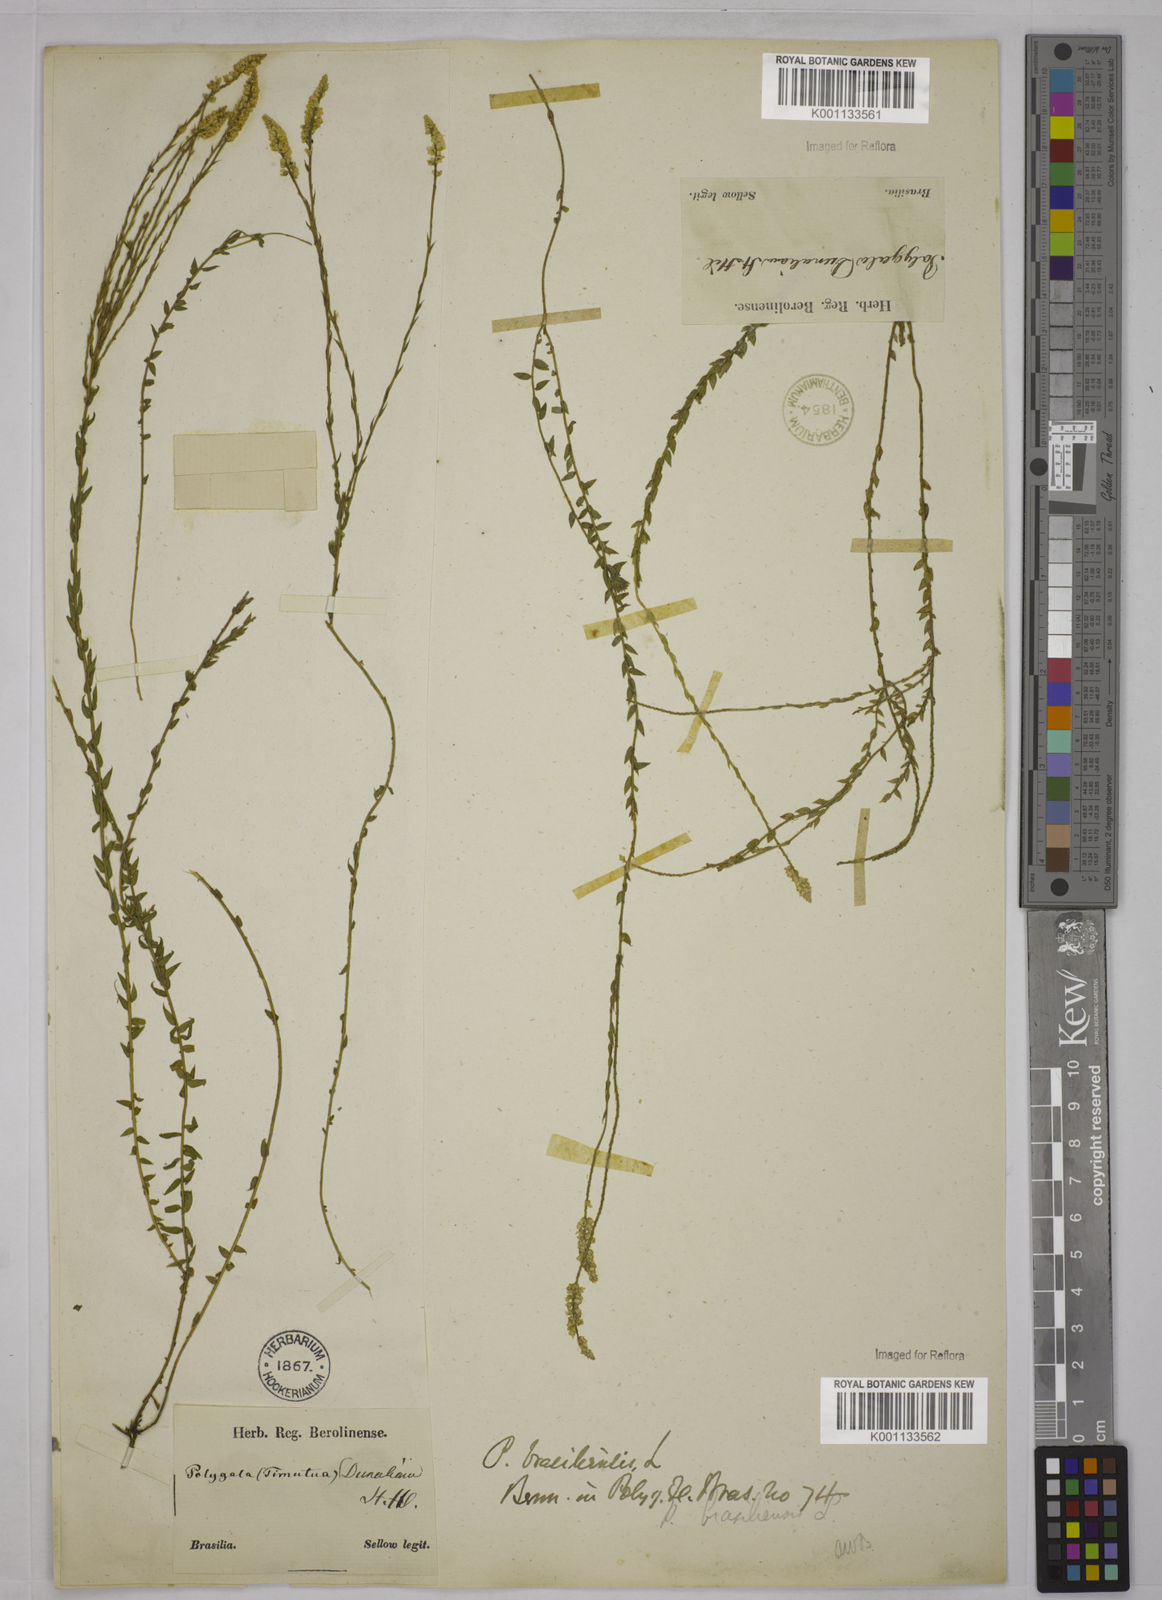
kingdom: Plantae
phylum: Tracheophyta
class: Magnoliopsida
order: Fabales
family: Polygalaceae
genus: Polygala
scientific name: Polygala brasiliensis
